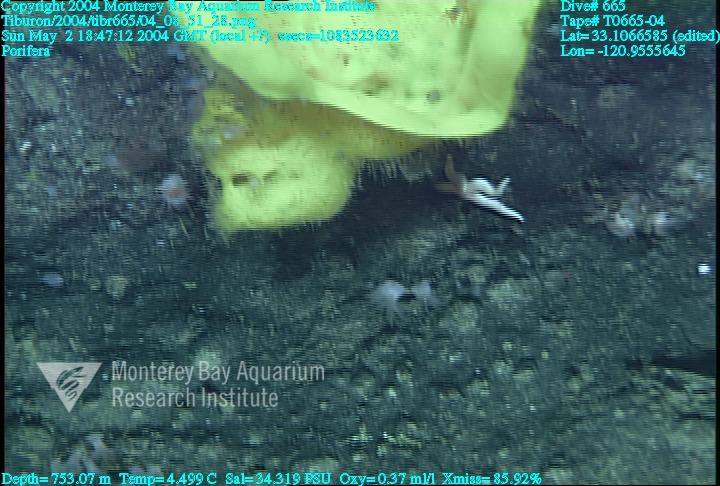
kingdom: Animalia
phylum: Porifera
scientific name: Porifera
